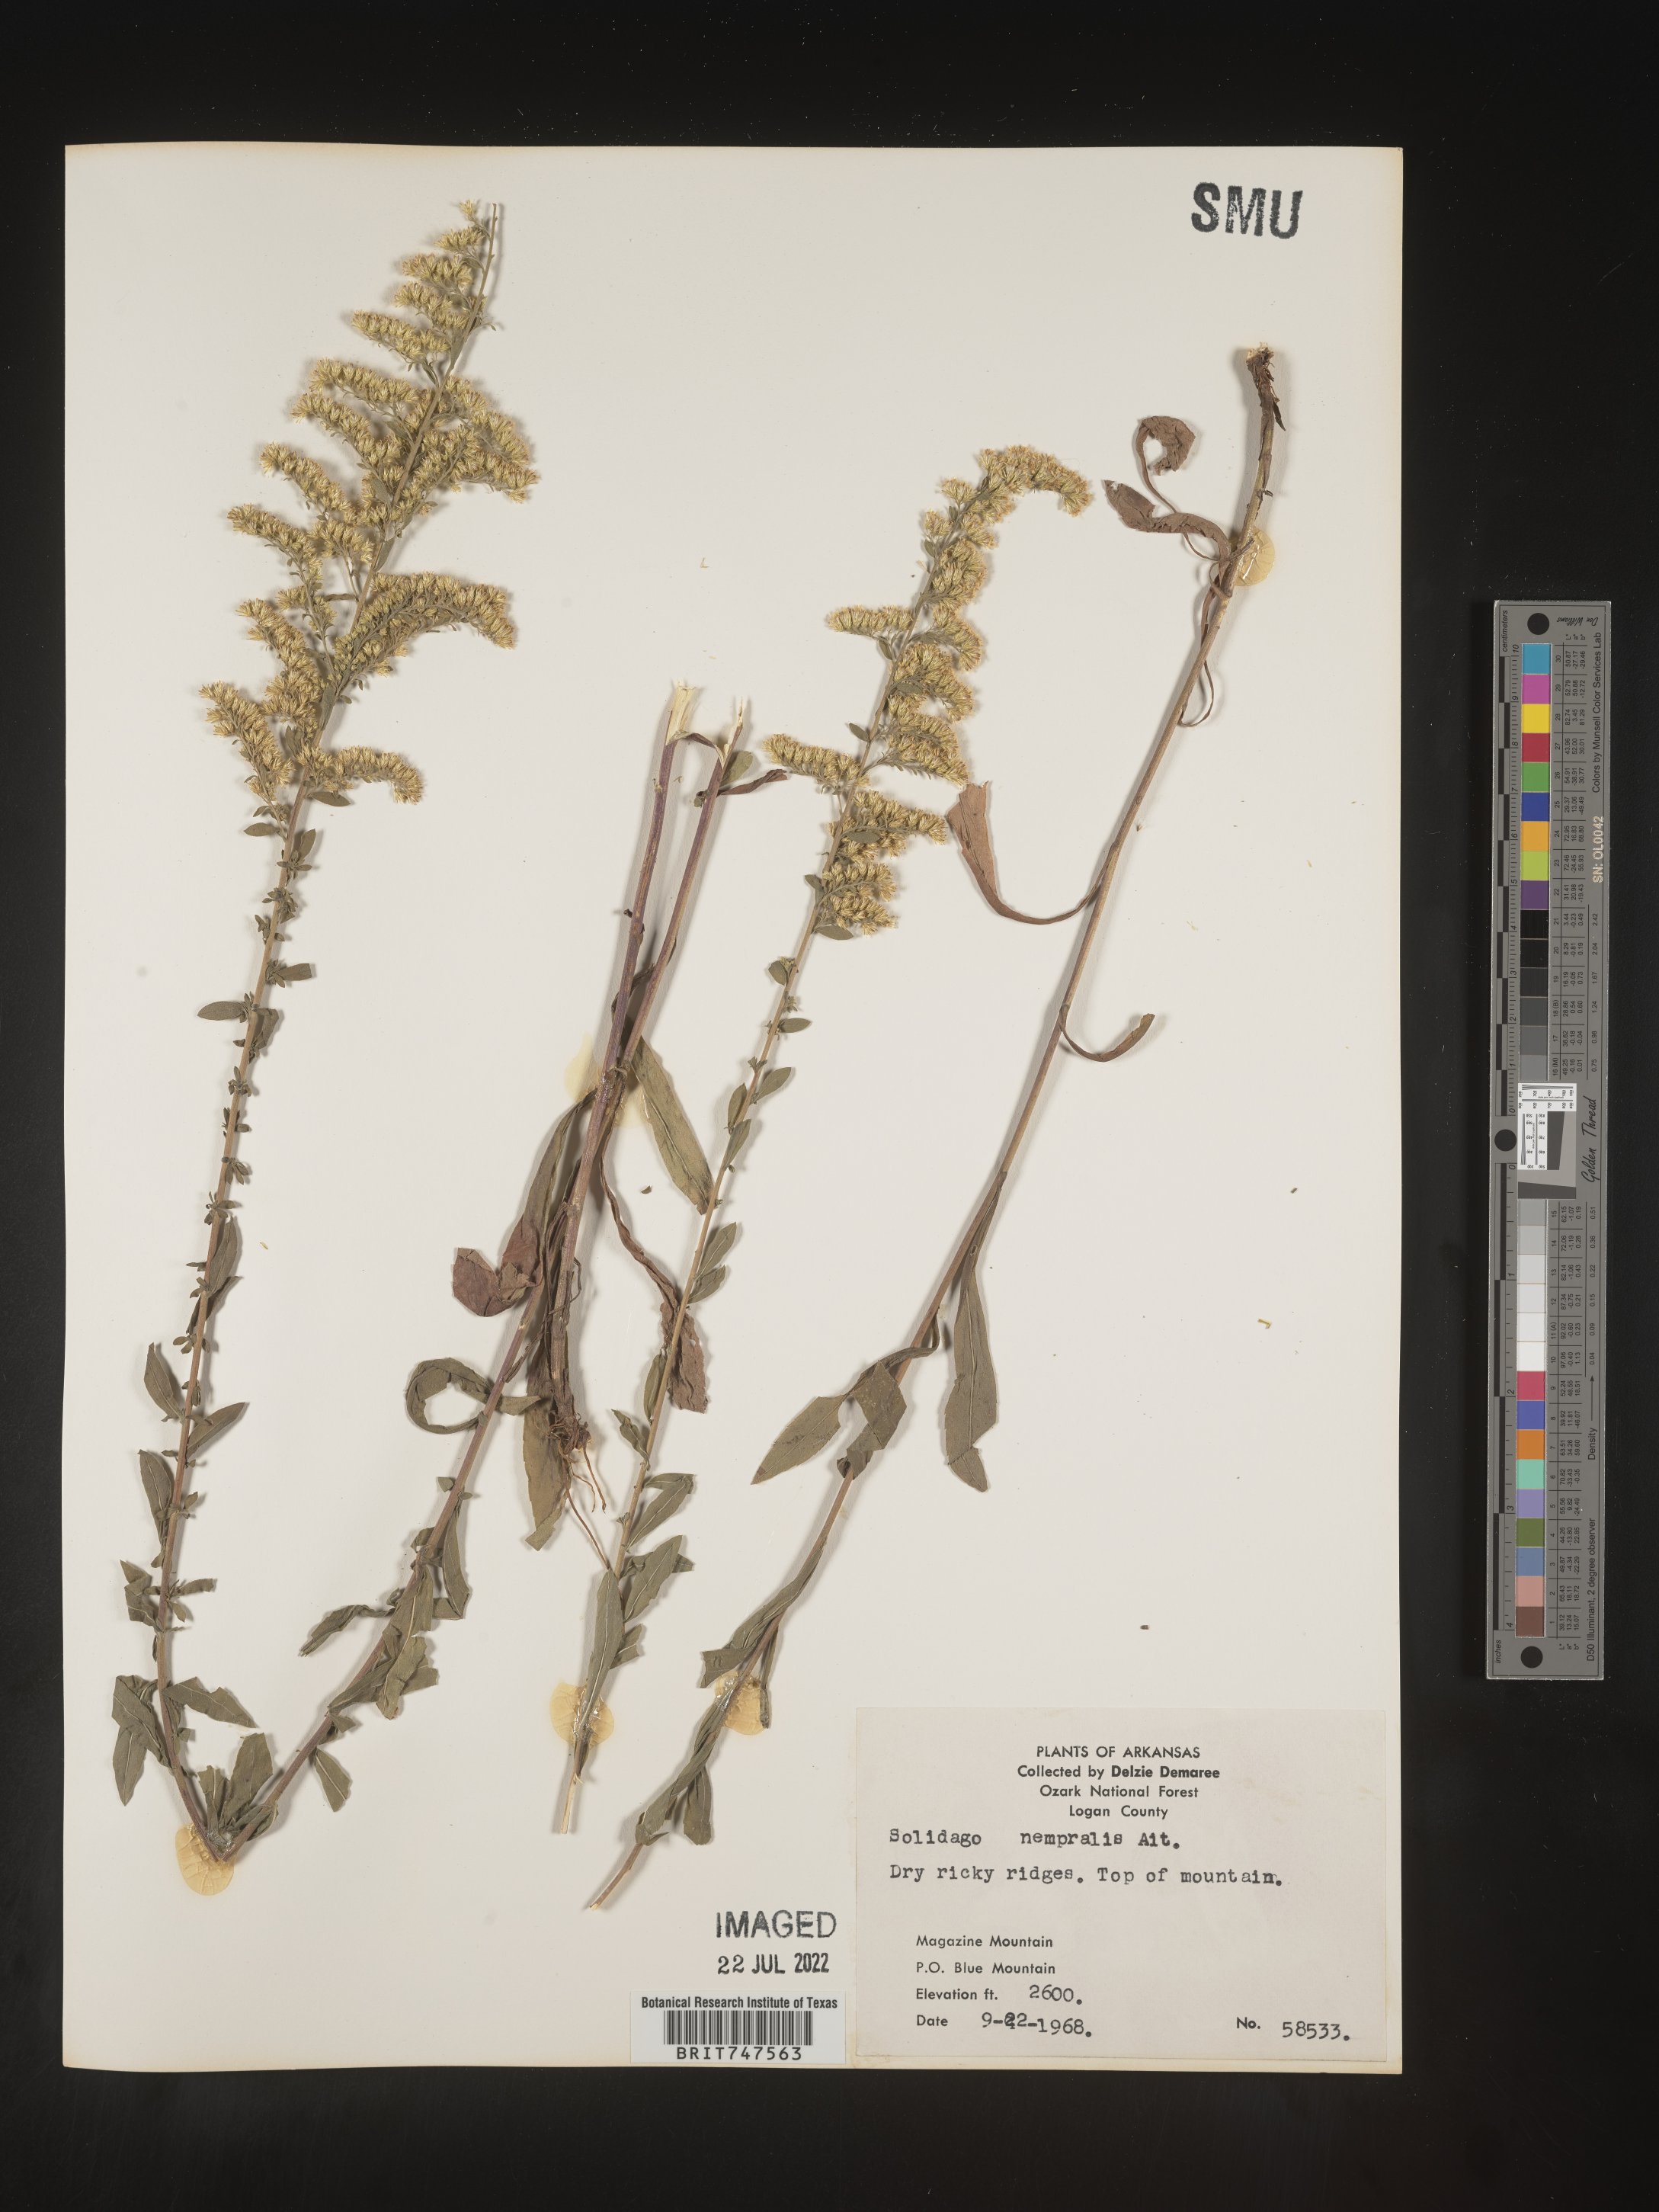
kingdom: Plantae
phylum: Tracheophyta
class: Magnoliopsida
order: Asterales
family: Asteraceae
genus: Solidago
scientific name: Solidago nemoralis
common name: Grey goldenrod
